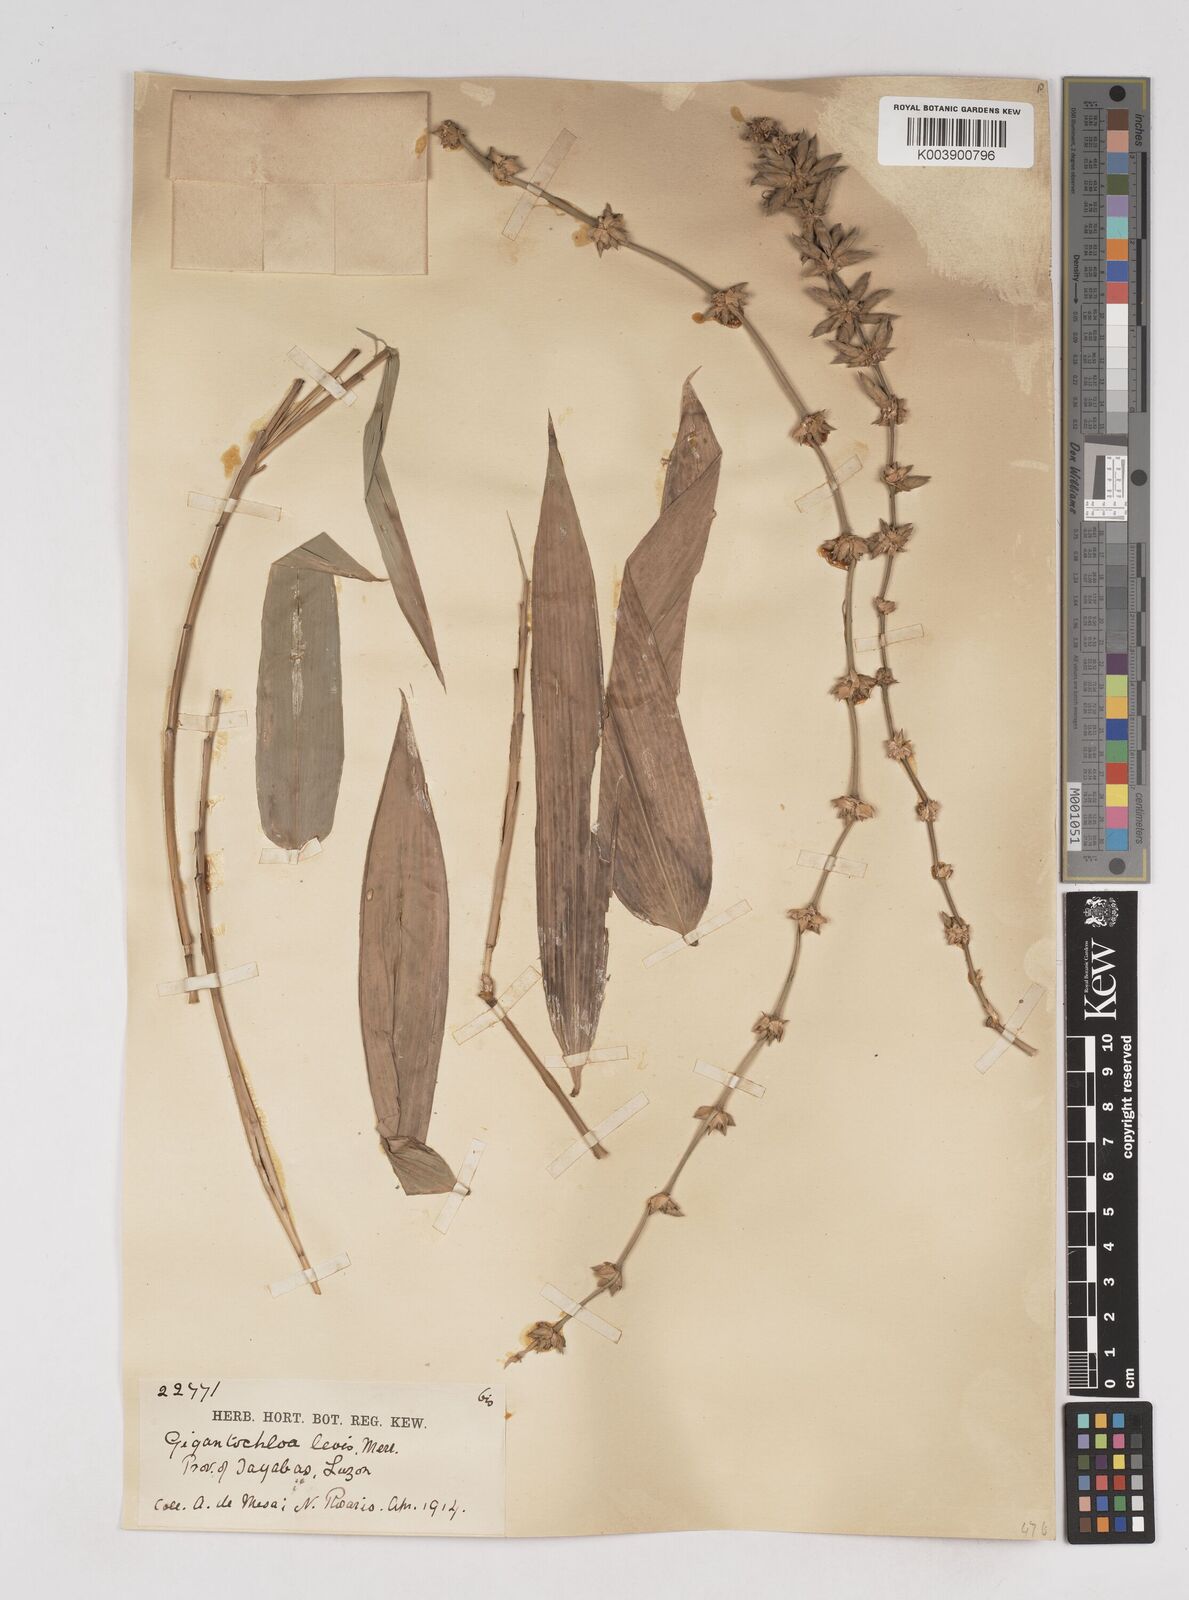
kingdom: Plantae
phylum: Tracheophyta
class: Liliopsida
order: Poales
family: Poaceae
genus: Gigantochloa
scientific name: Gigantochloa levis
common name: Smooth-shoot gigantochloa
